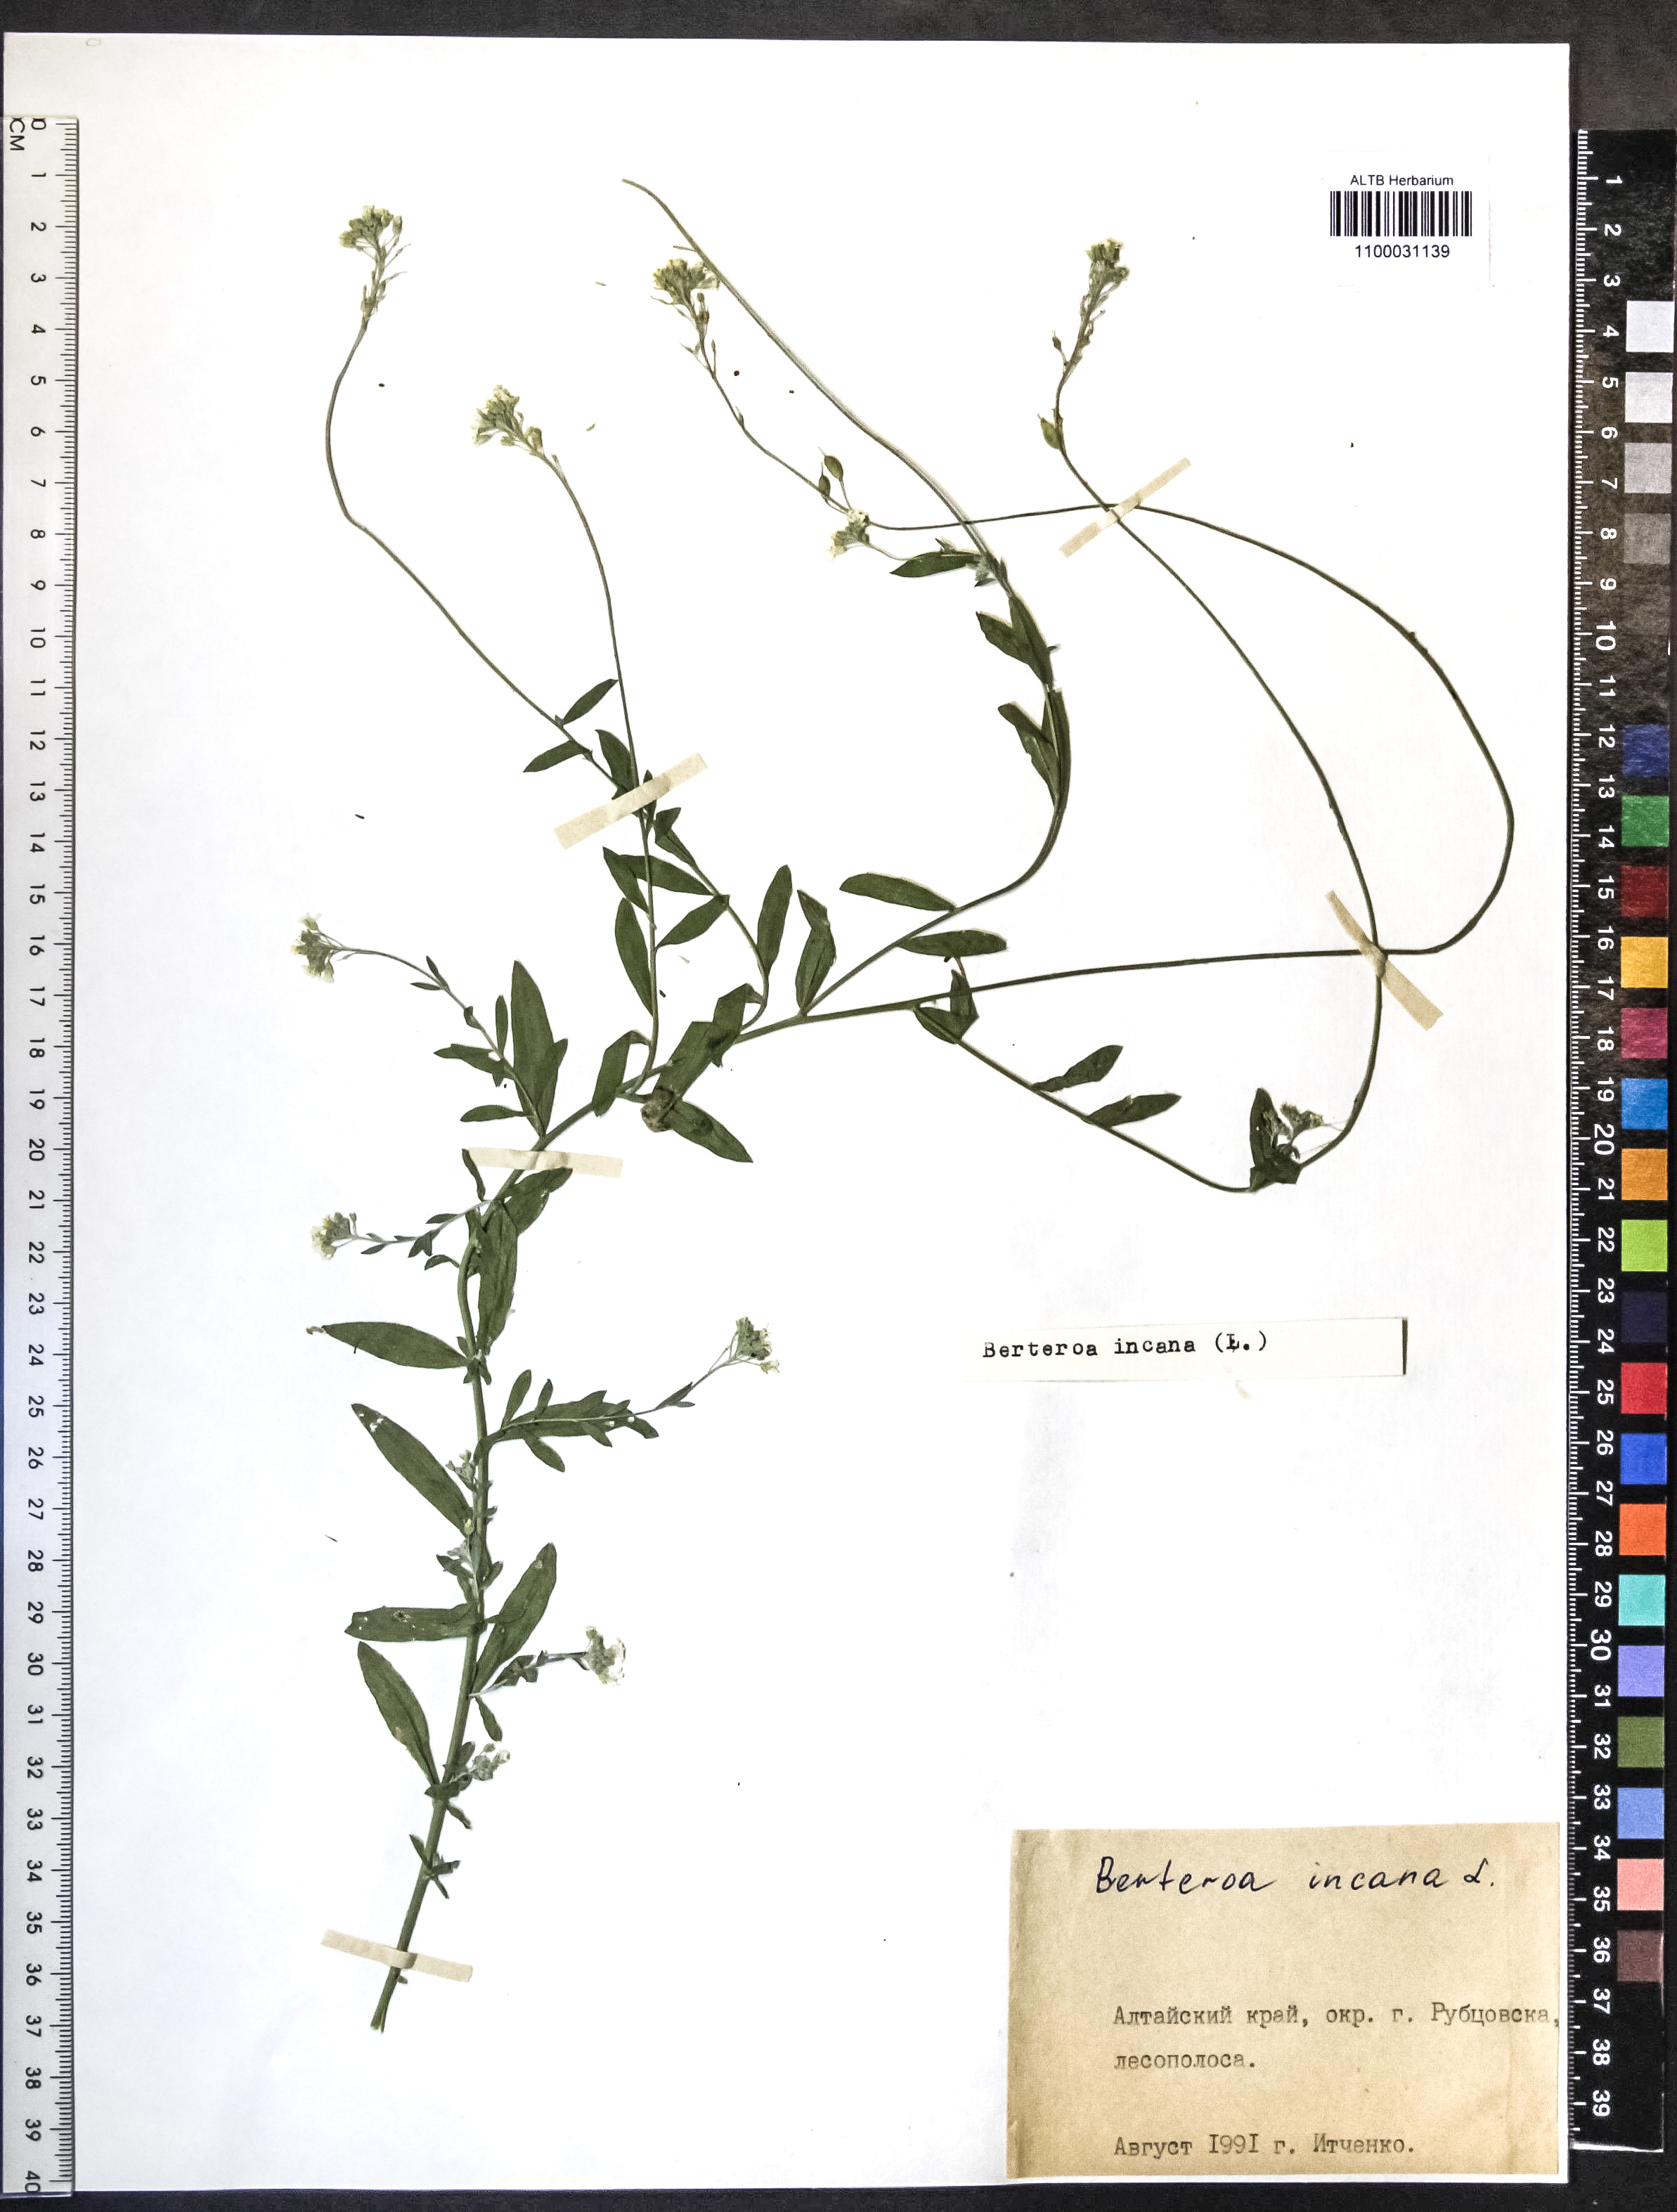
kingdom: Plantae
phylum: Tracheophyta
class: Magnoliopsida
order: Brassicales
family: Brassicaceae
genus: Berteroa
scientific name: Berteroa incana
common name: Hoary alison
